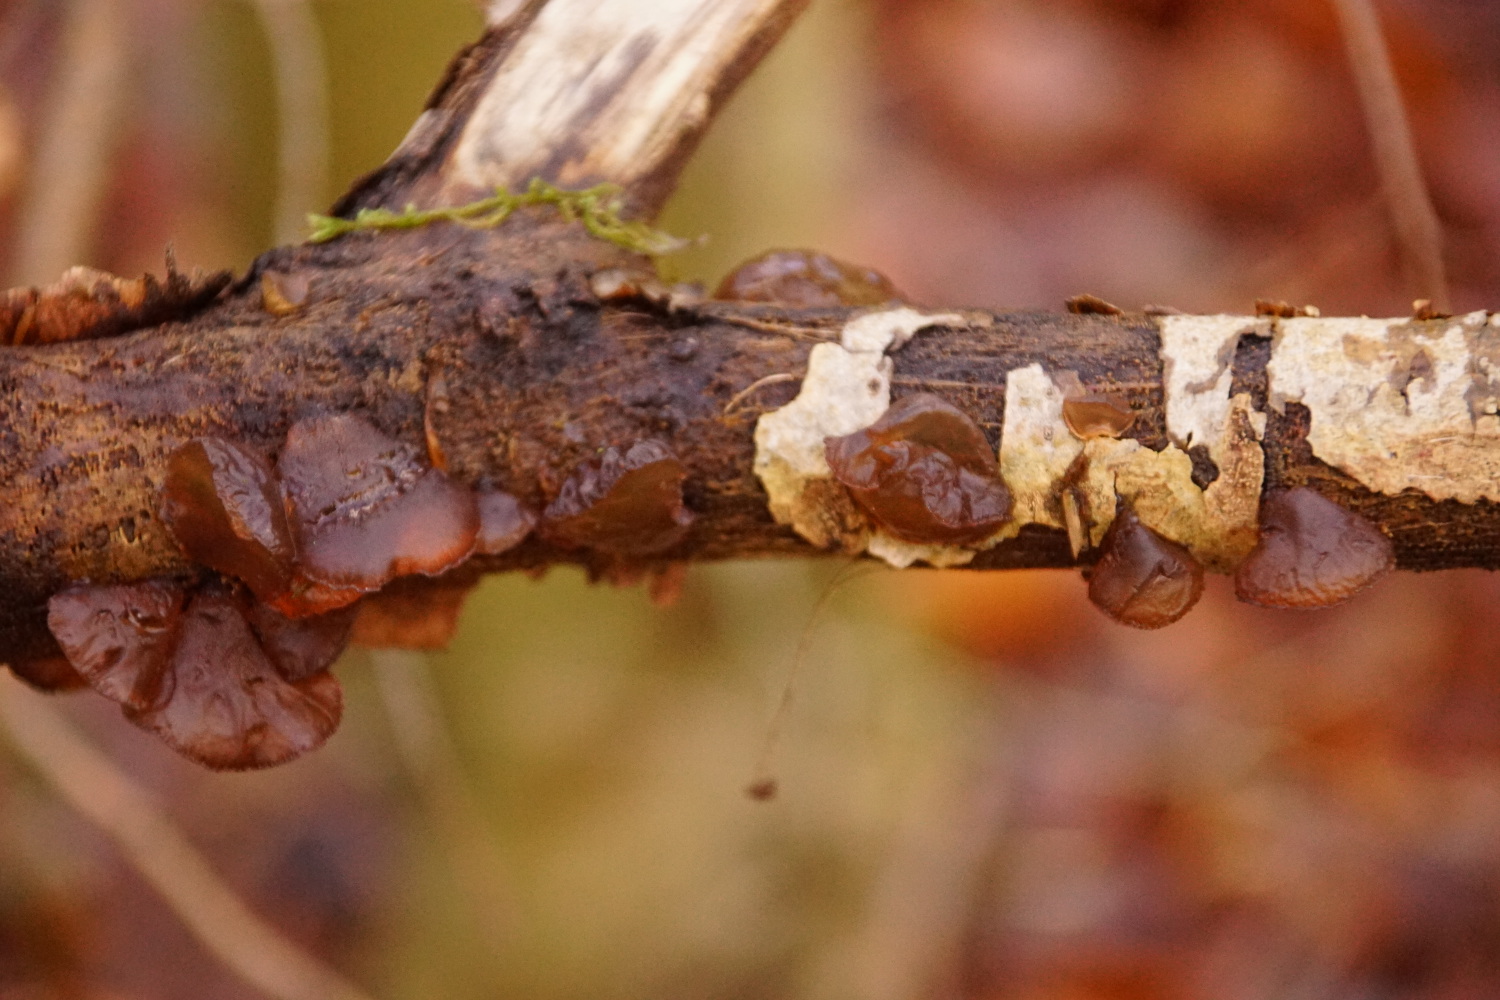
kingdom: Fungi
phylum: Basidiomycota
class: Agaricomycetes
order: Auriculariales
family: Auriculariaceae
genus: Exidia
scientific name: Exidia recisa
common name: pile-bævretop
